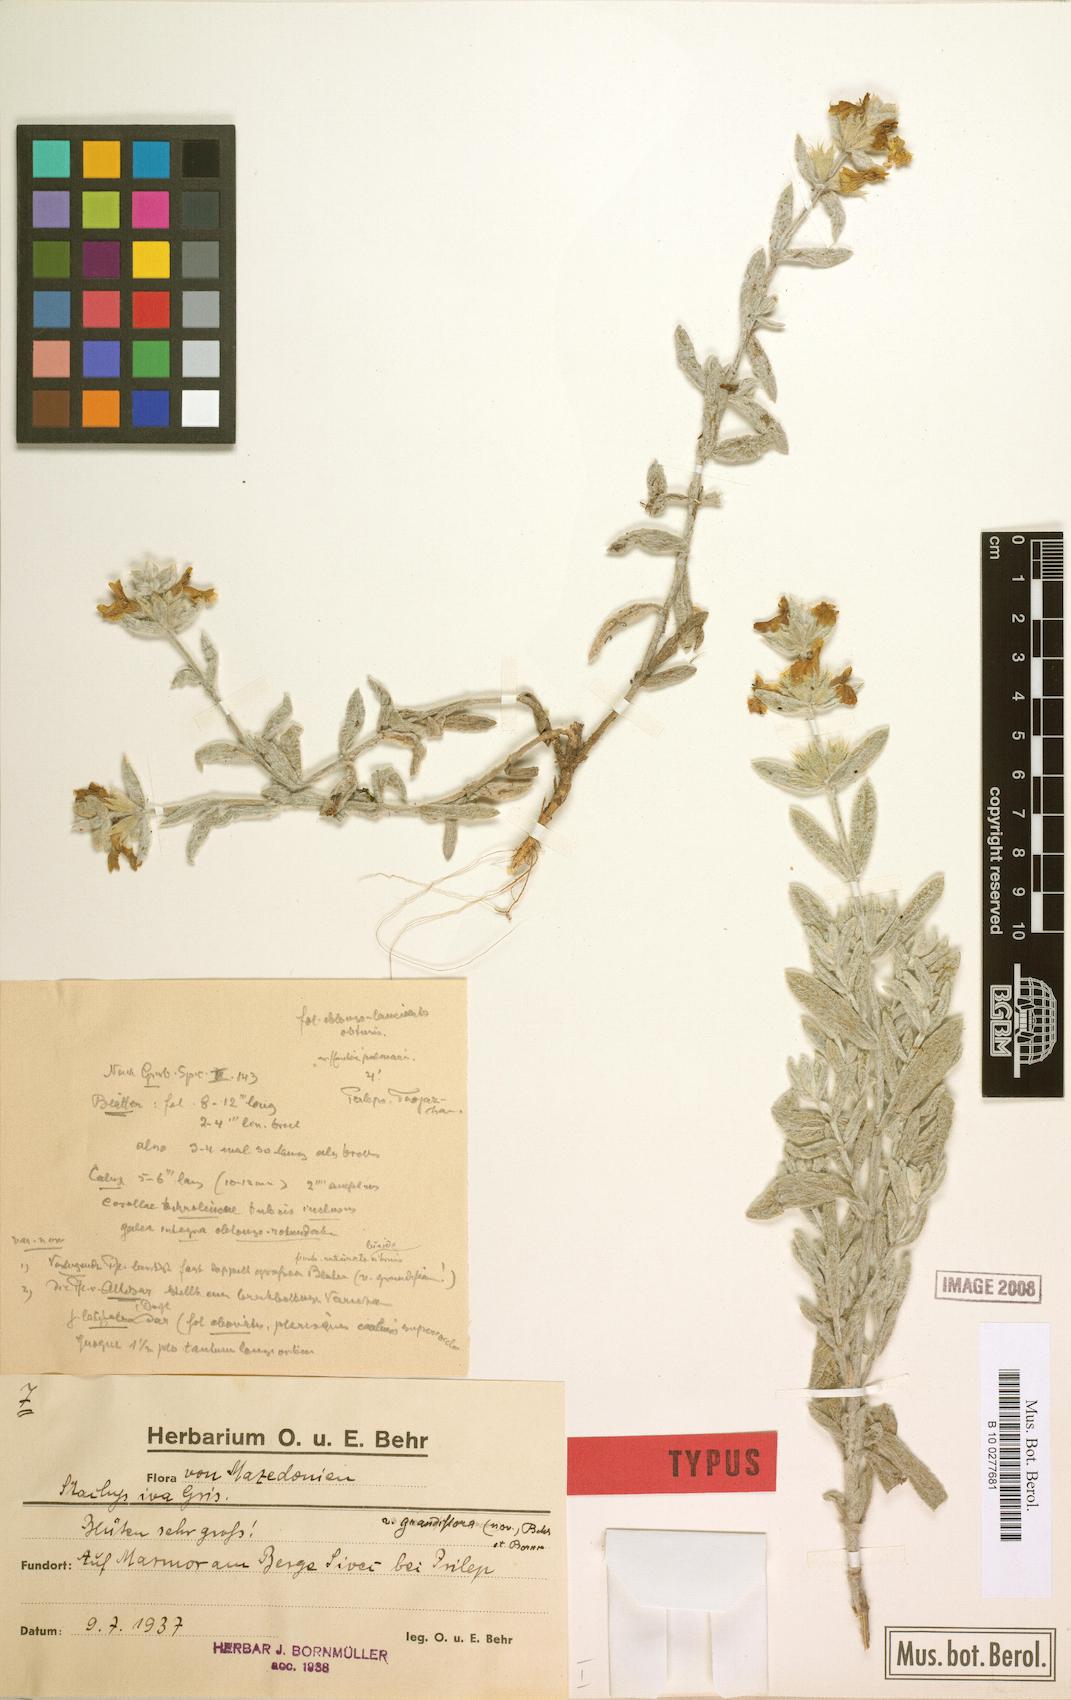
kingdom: Plantae
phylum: Tracheophyta
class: Magnoliopsida
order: Lamiales
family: Lamiaceae
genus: Stachys
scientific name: Stachys iva
